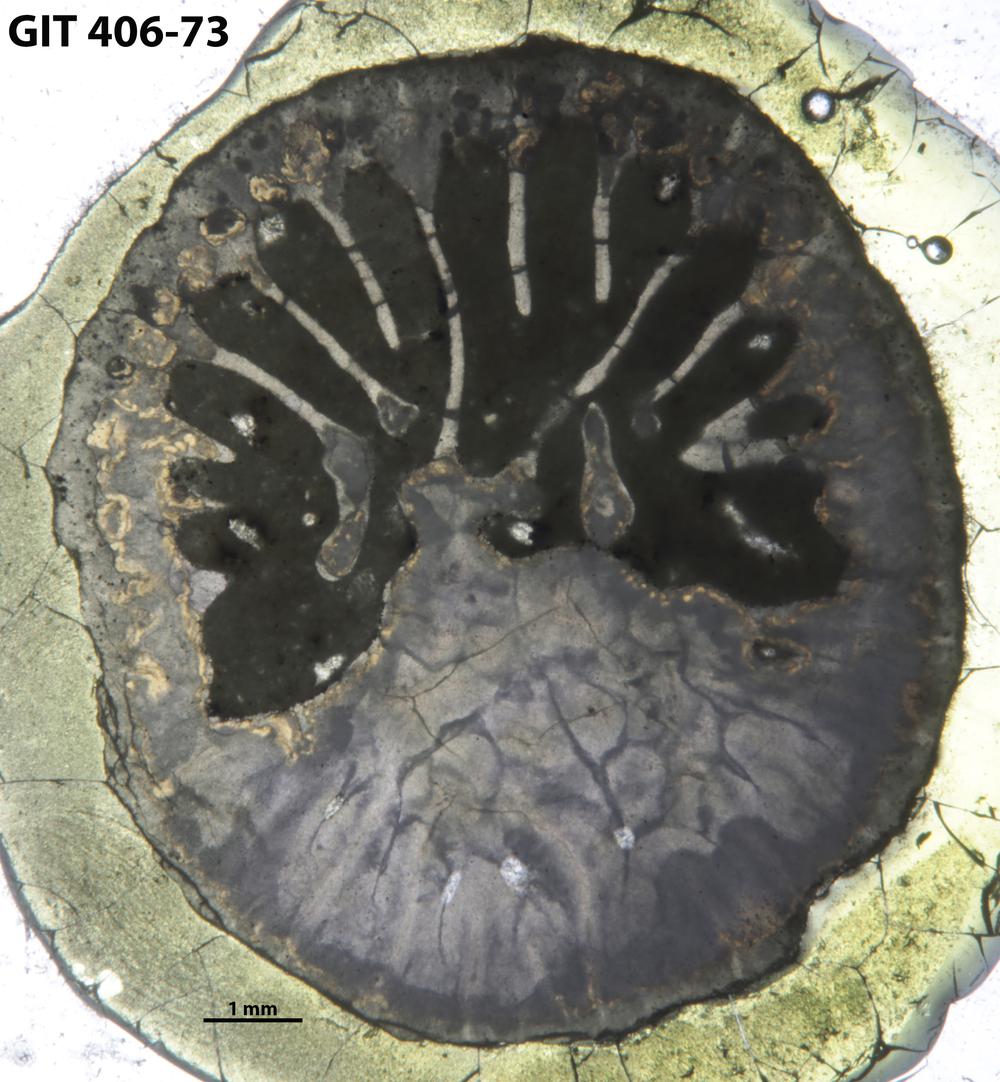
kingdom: Animalia
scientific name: Animalia
